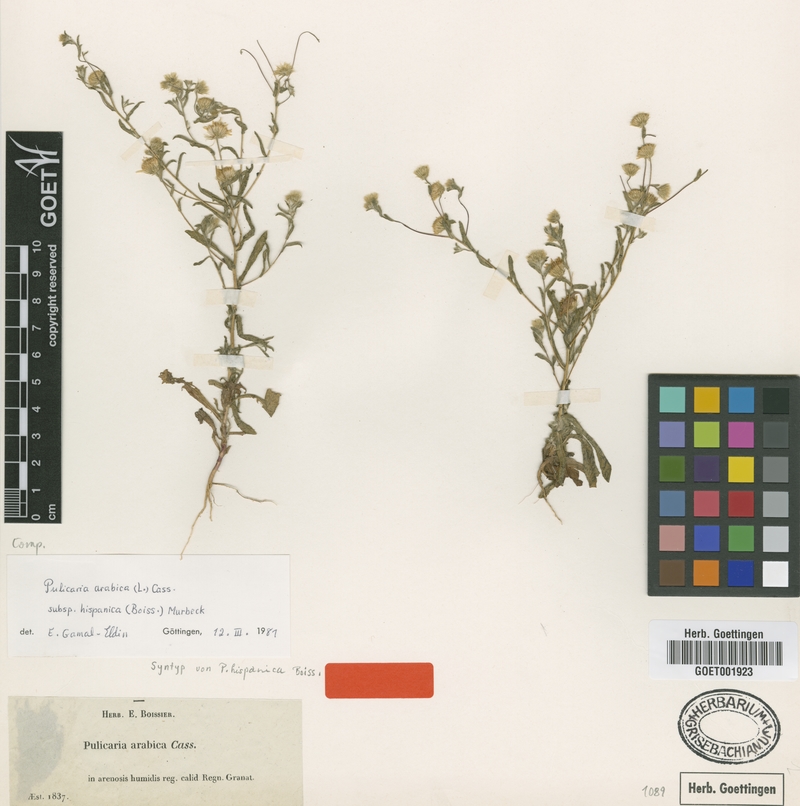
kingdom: Plantae
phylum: Tracheophyta
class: Magnoliopsida
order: Asterales
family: Asteraceae
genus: Pulicaria
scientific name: Pulicaria arabica
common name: Ladies' false fleabane
